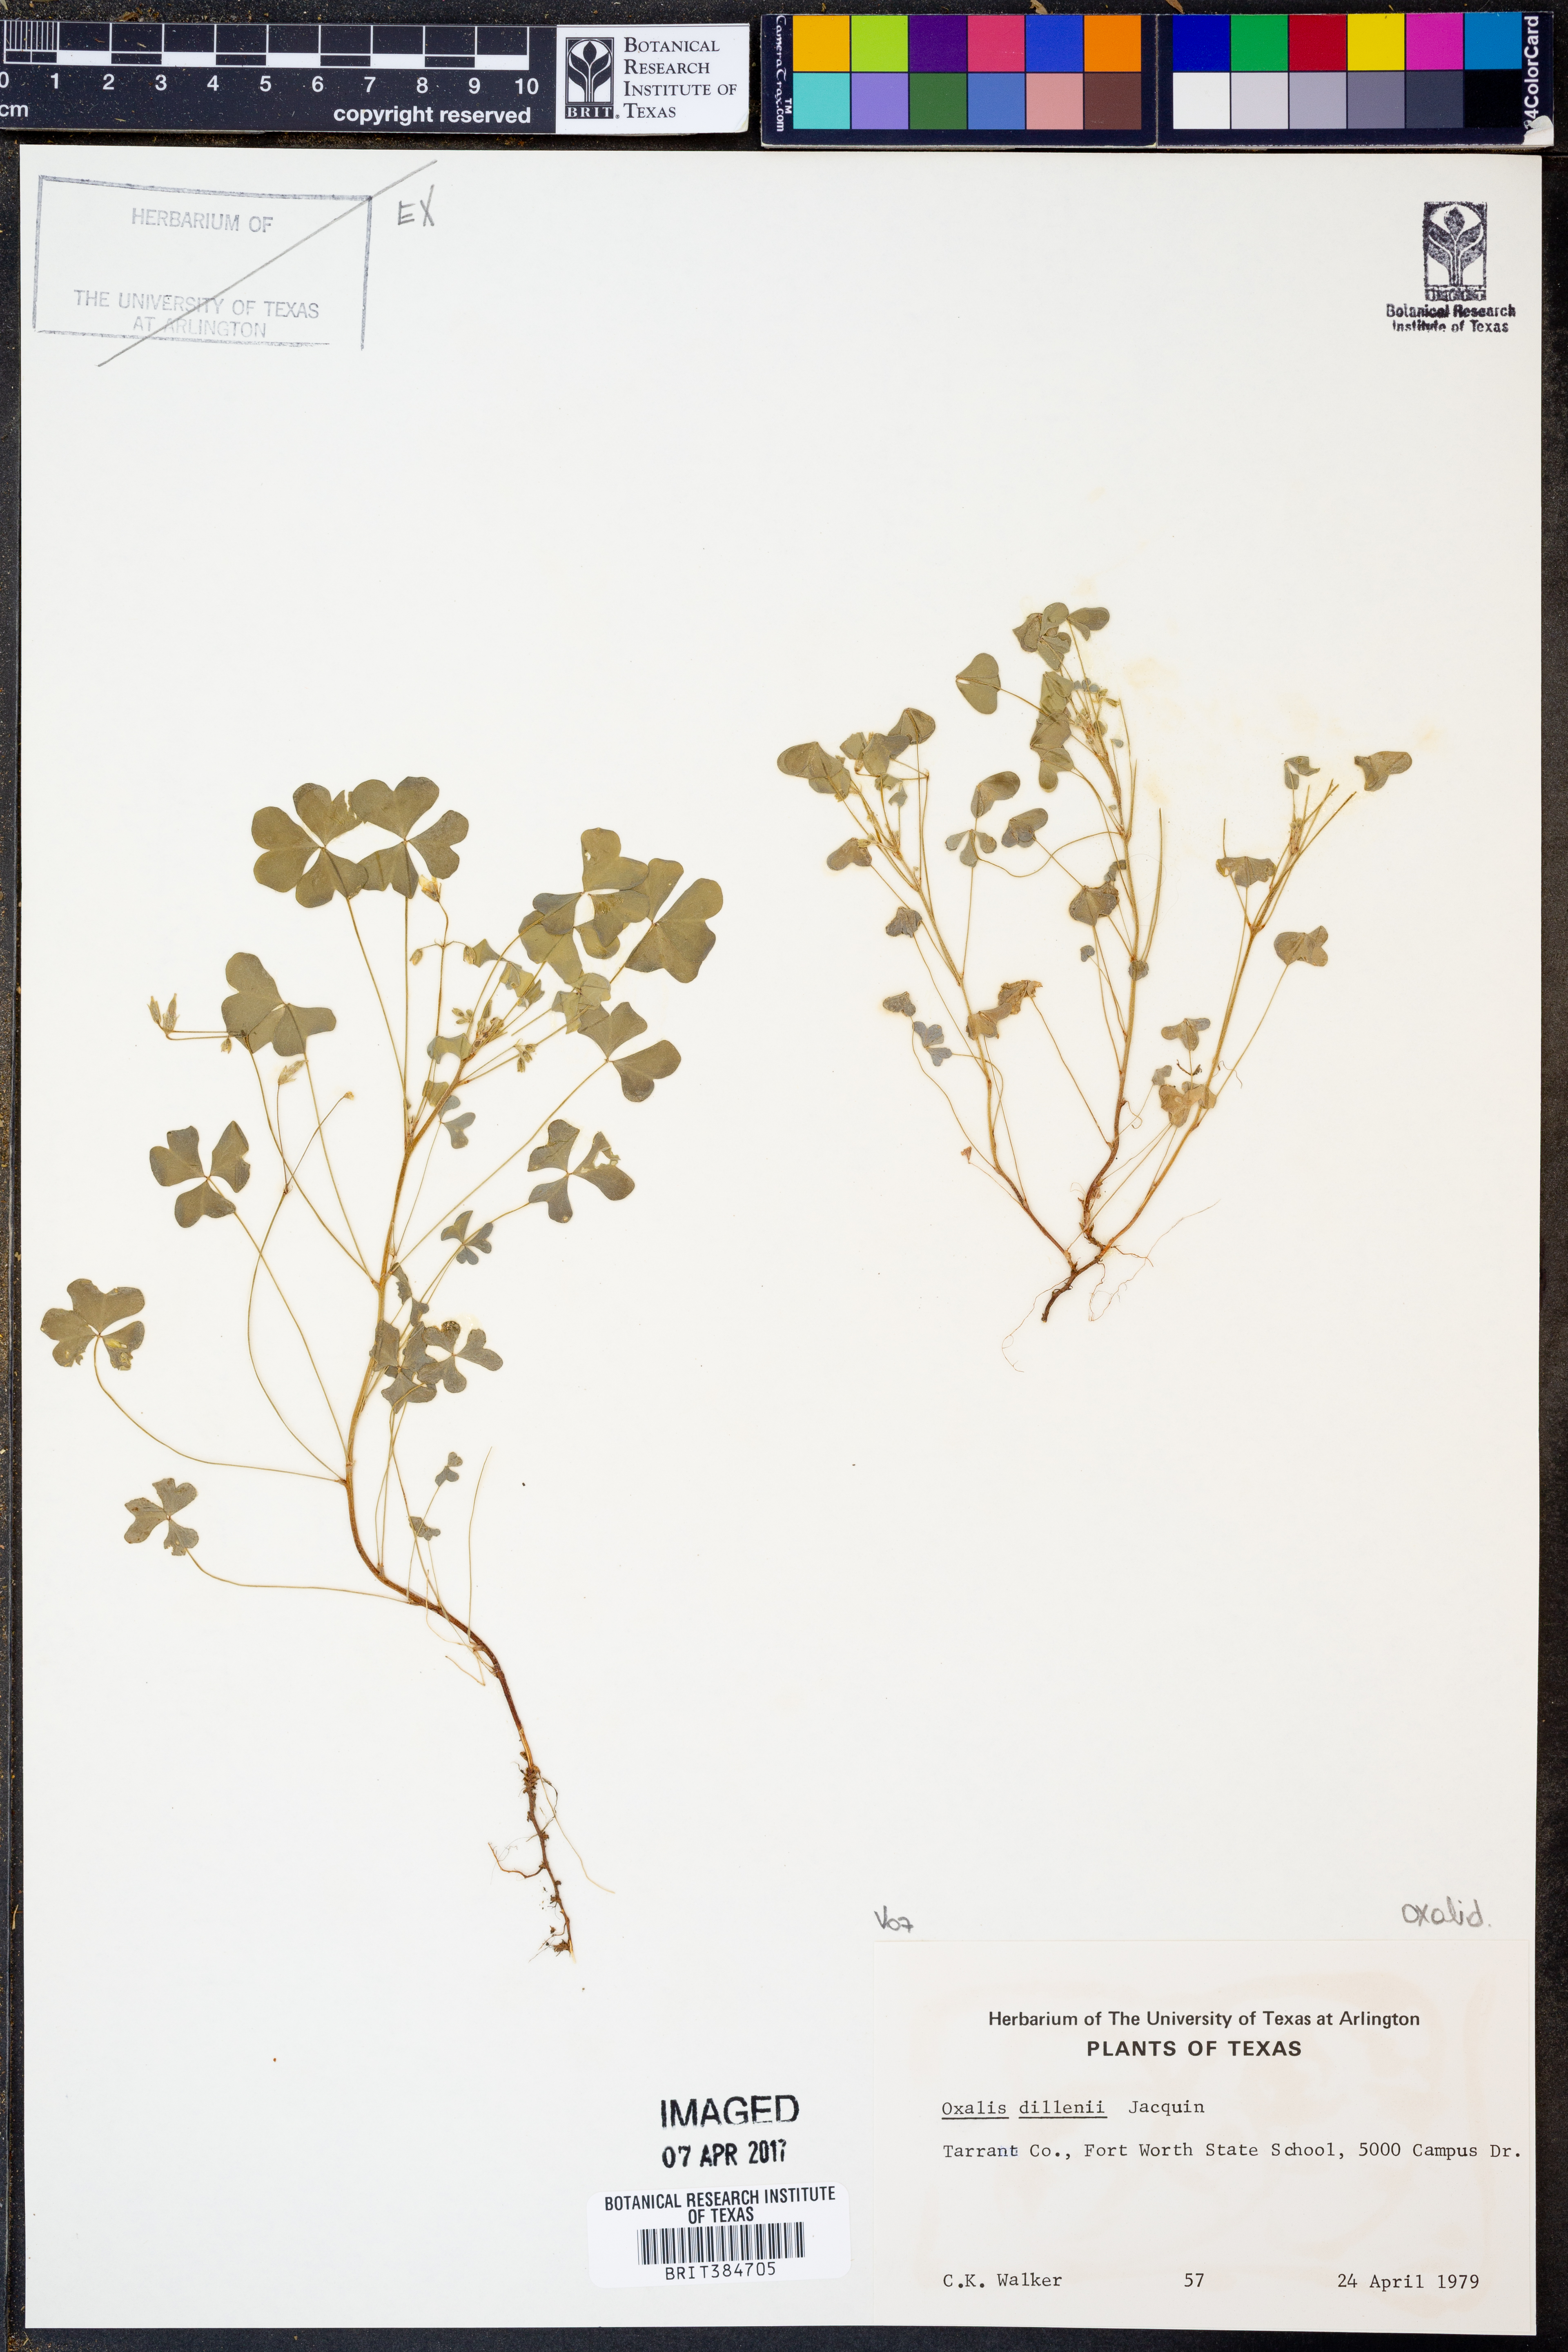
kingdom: Plantae
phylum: Tracheophyta
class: Magnoliopsida
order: Oxalidales
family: Oxalidaceae
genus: Oxalis
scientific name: Oxalis dillenii
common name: Sussex yellow-sorrel
